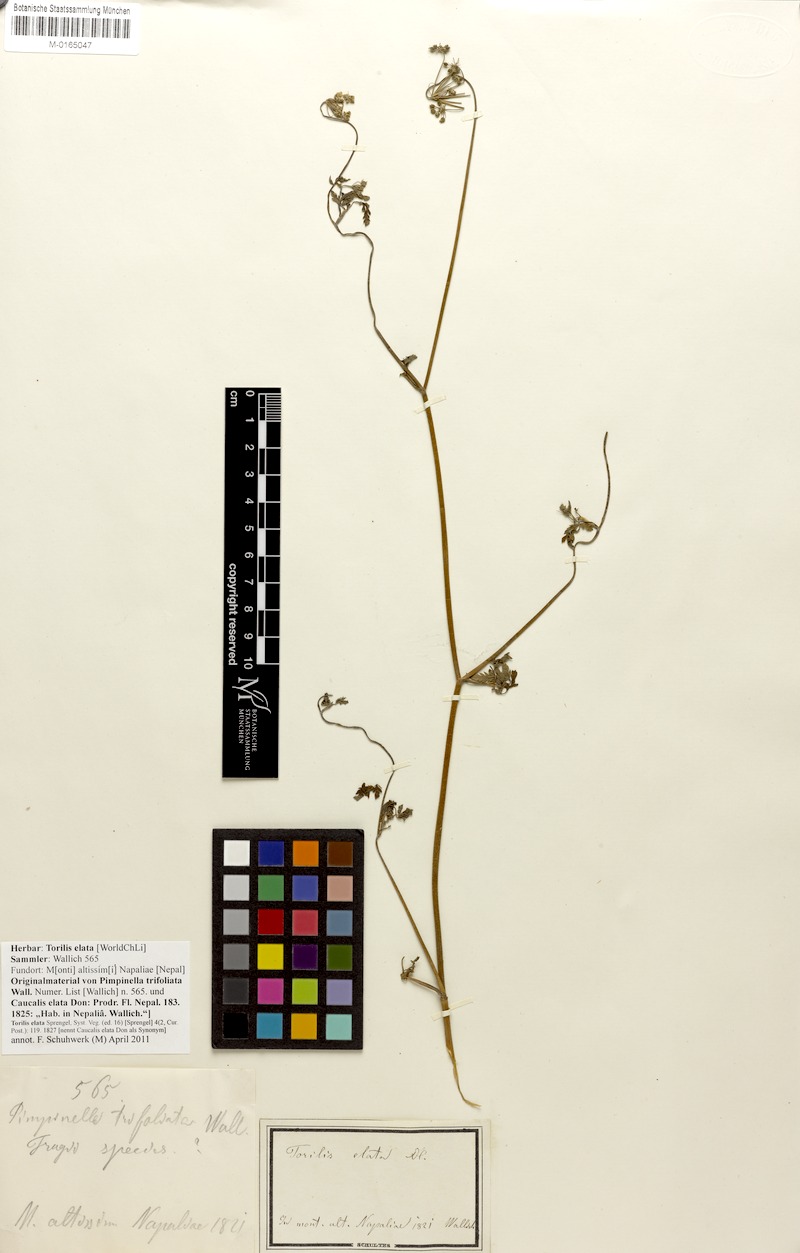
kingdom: Plantae
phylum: Tracheophyta
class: Magnoliopsida
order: Apiales
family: Apiaceae
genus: Torilis
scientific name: Torilis japonica
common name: Upright hedge-parsley
